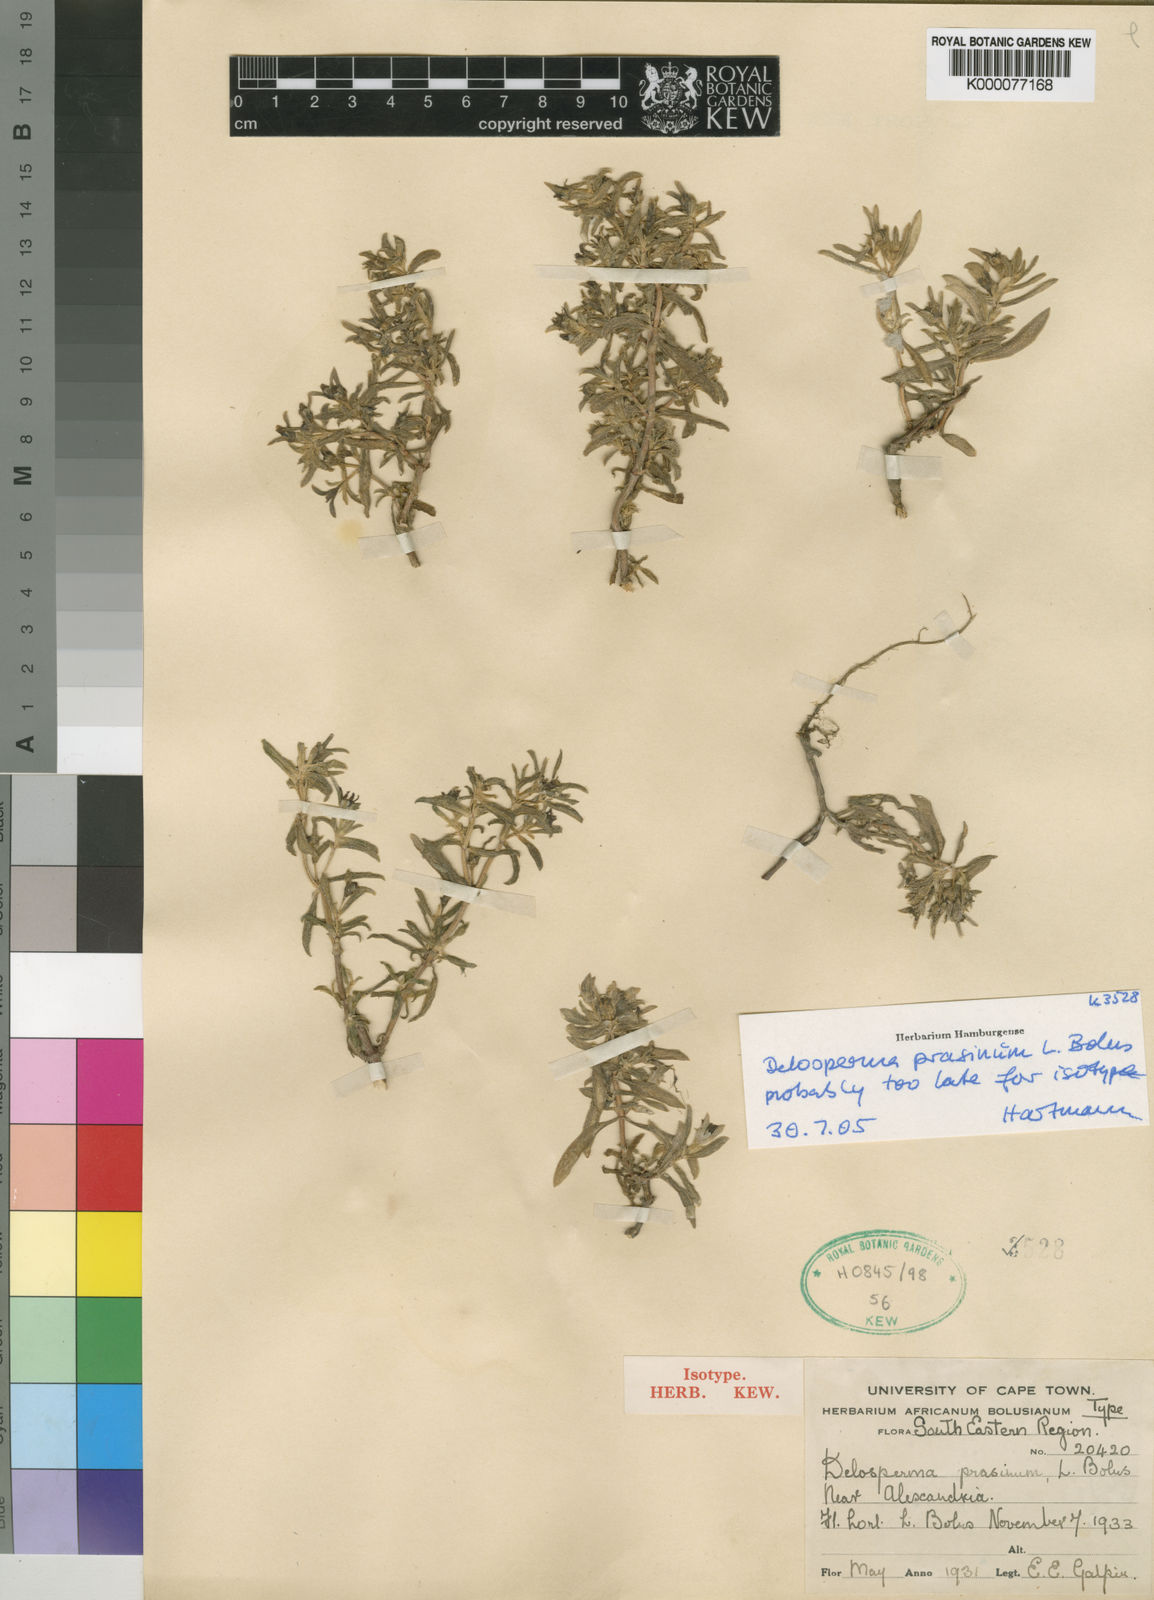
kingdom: Plantae
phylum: Tracheophyta
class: Magnoliopsida
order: Caryophyllales
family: Aizoaceae
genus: Delosperma
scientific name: Delosperma prasinum
